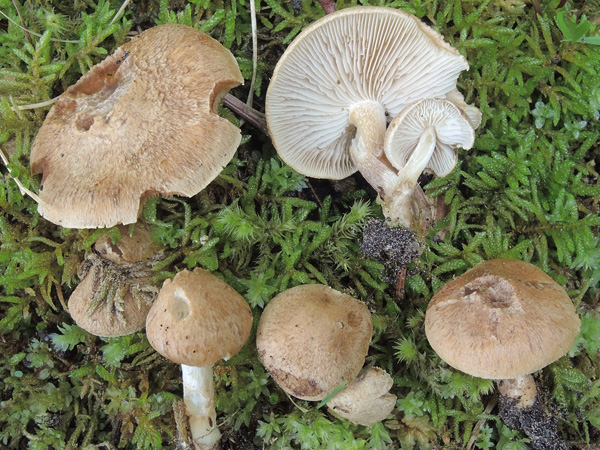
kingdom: Fungi
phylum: Basidiomycota
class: Agaricomycetes
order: Agaricales
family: Inocybaceae
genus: Inocybe
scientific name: Inocybe melanopoda
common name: sortfodet trævlhat
